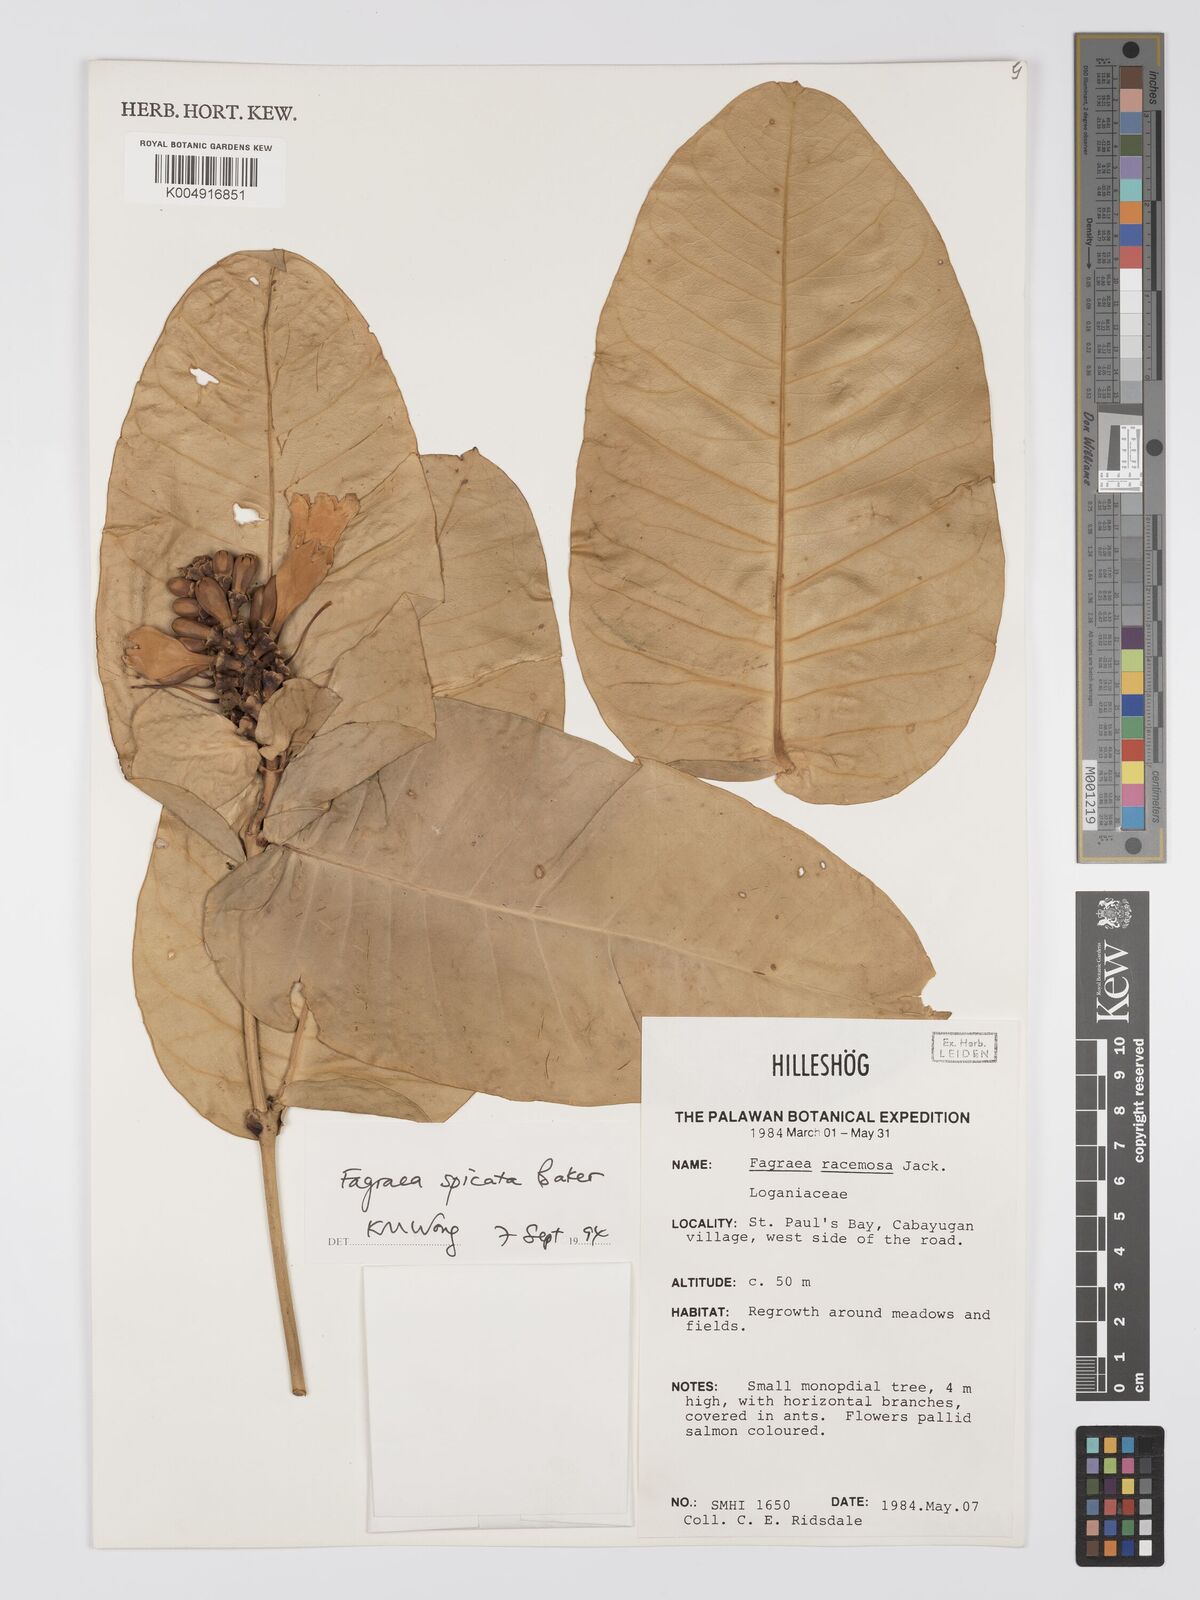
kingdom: Plantae
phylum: Tracheophyta
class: Magnoliopsida
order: Gentianales
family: Gentianaceae
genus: Utania
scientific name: Utania racemosa
